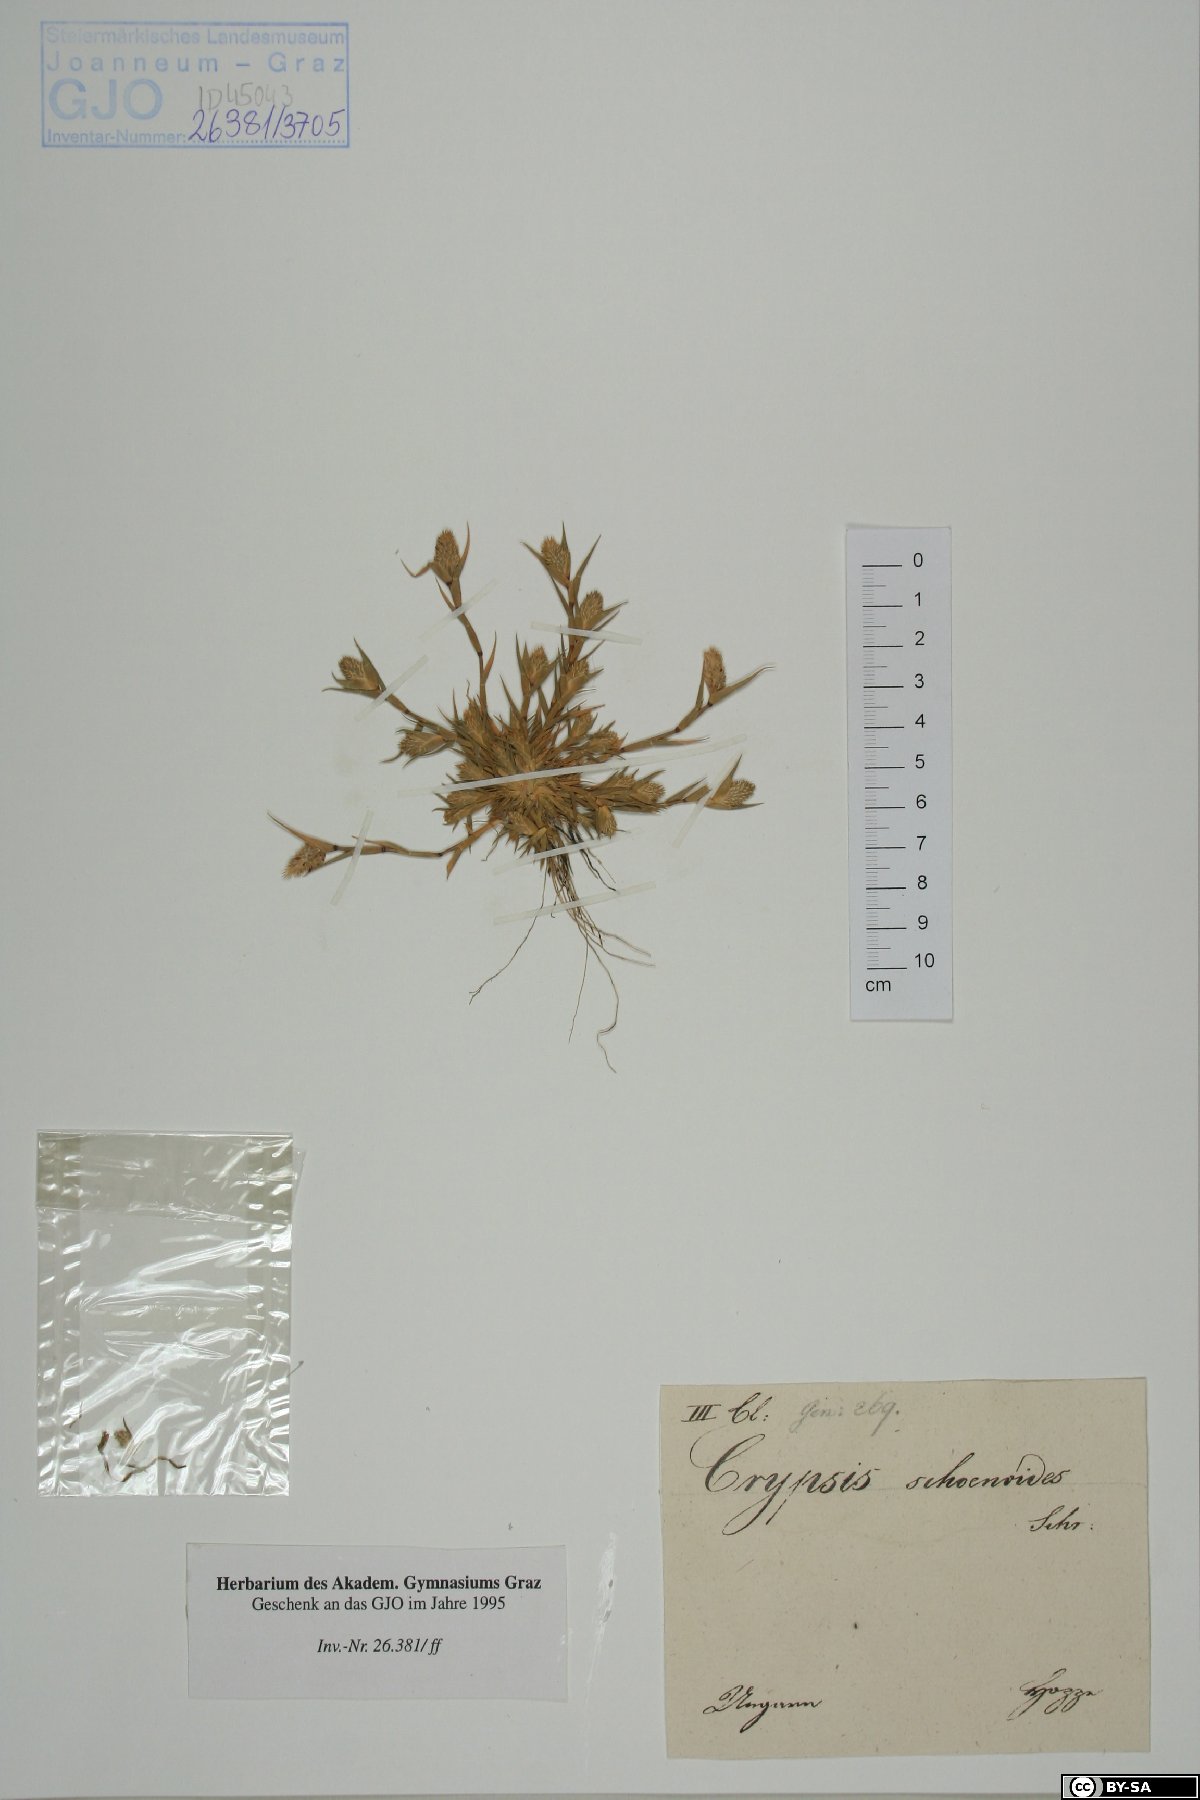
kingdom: Plantae
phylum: Tracheophyta
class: Liliopsida
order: Poales
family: Poaceae
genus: Sporobolus
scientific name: Sporobolus schoenoides
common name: Rush-like timothy
